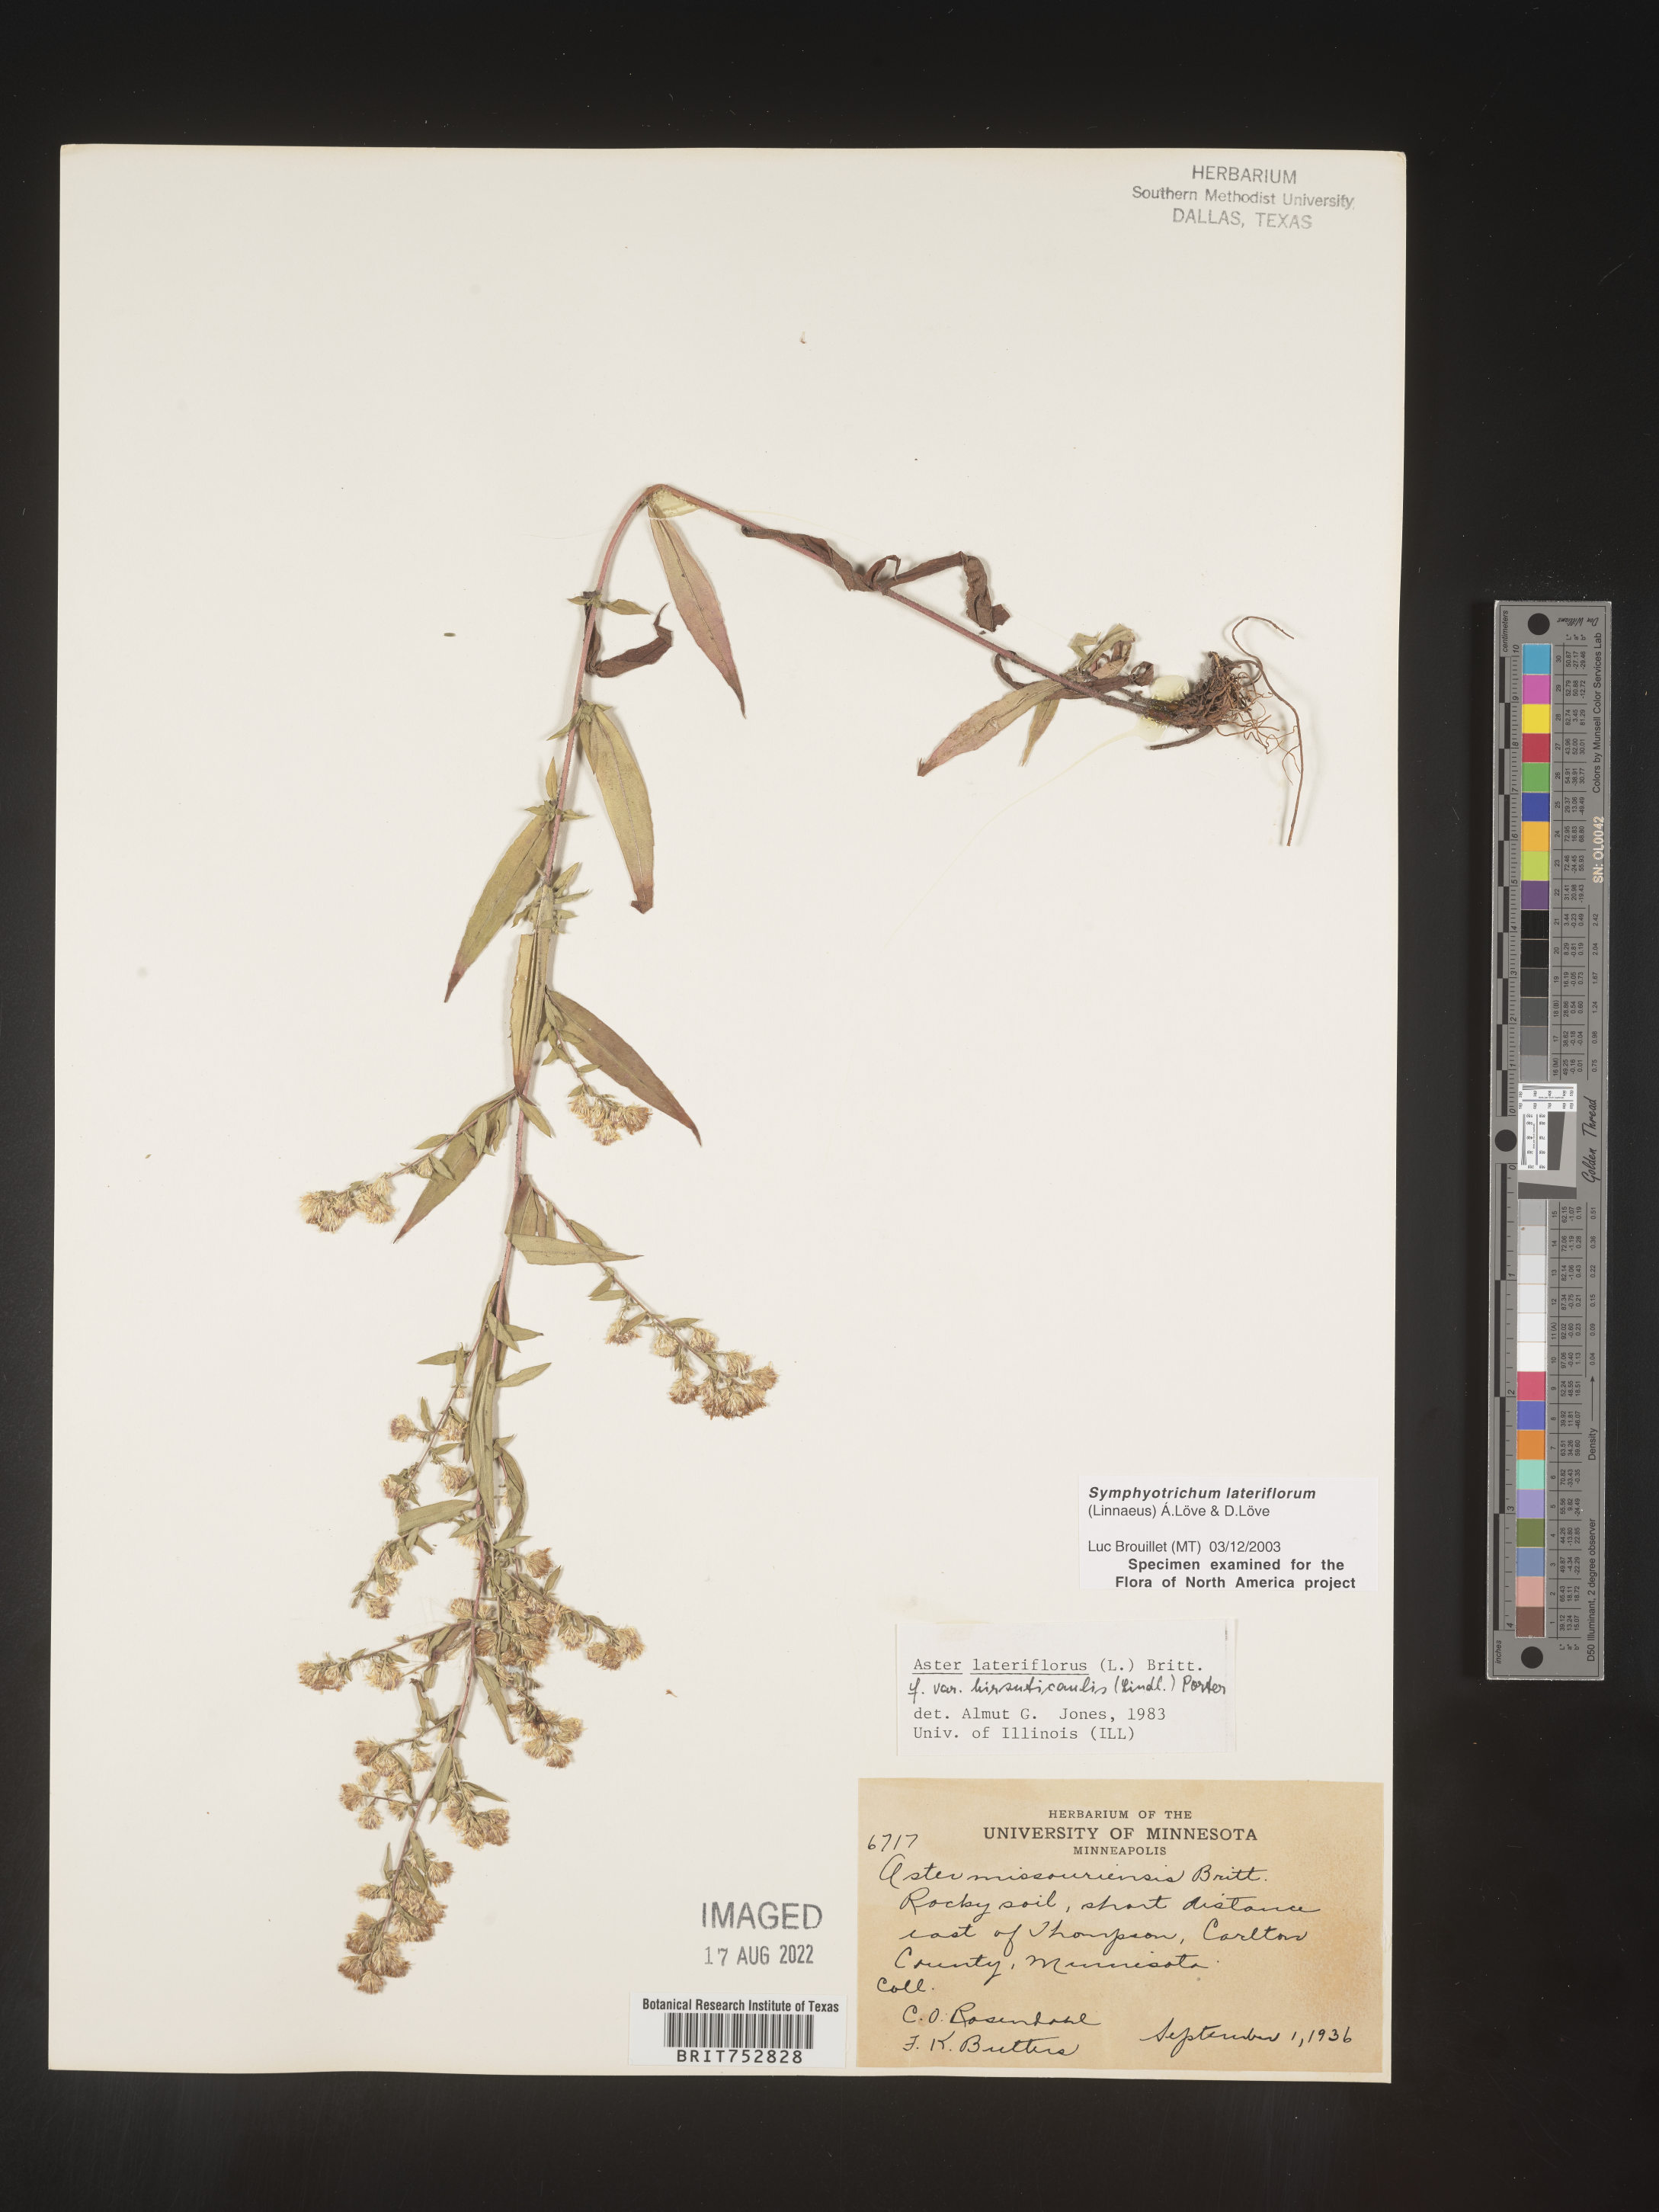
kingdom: Plantae
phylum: Tracheophyta
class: Magnoliopsida
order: Asterales
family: Asteraceae
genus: Symphyotrichum
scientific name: Symphyotrichum lateriflorum
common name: Calico aster
